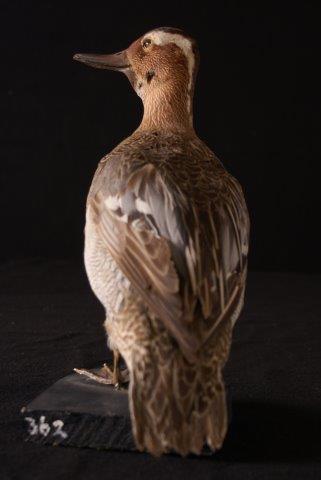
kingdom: Animalia
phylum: Chordata
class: Aves
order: Anseriformes
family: Anatidae
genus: Spatula
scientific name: Spatula querquedula
